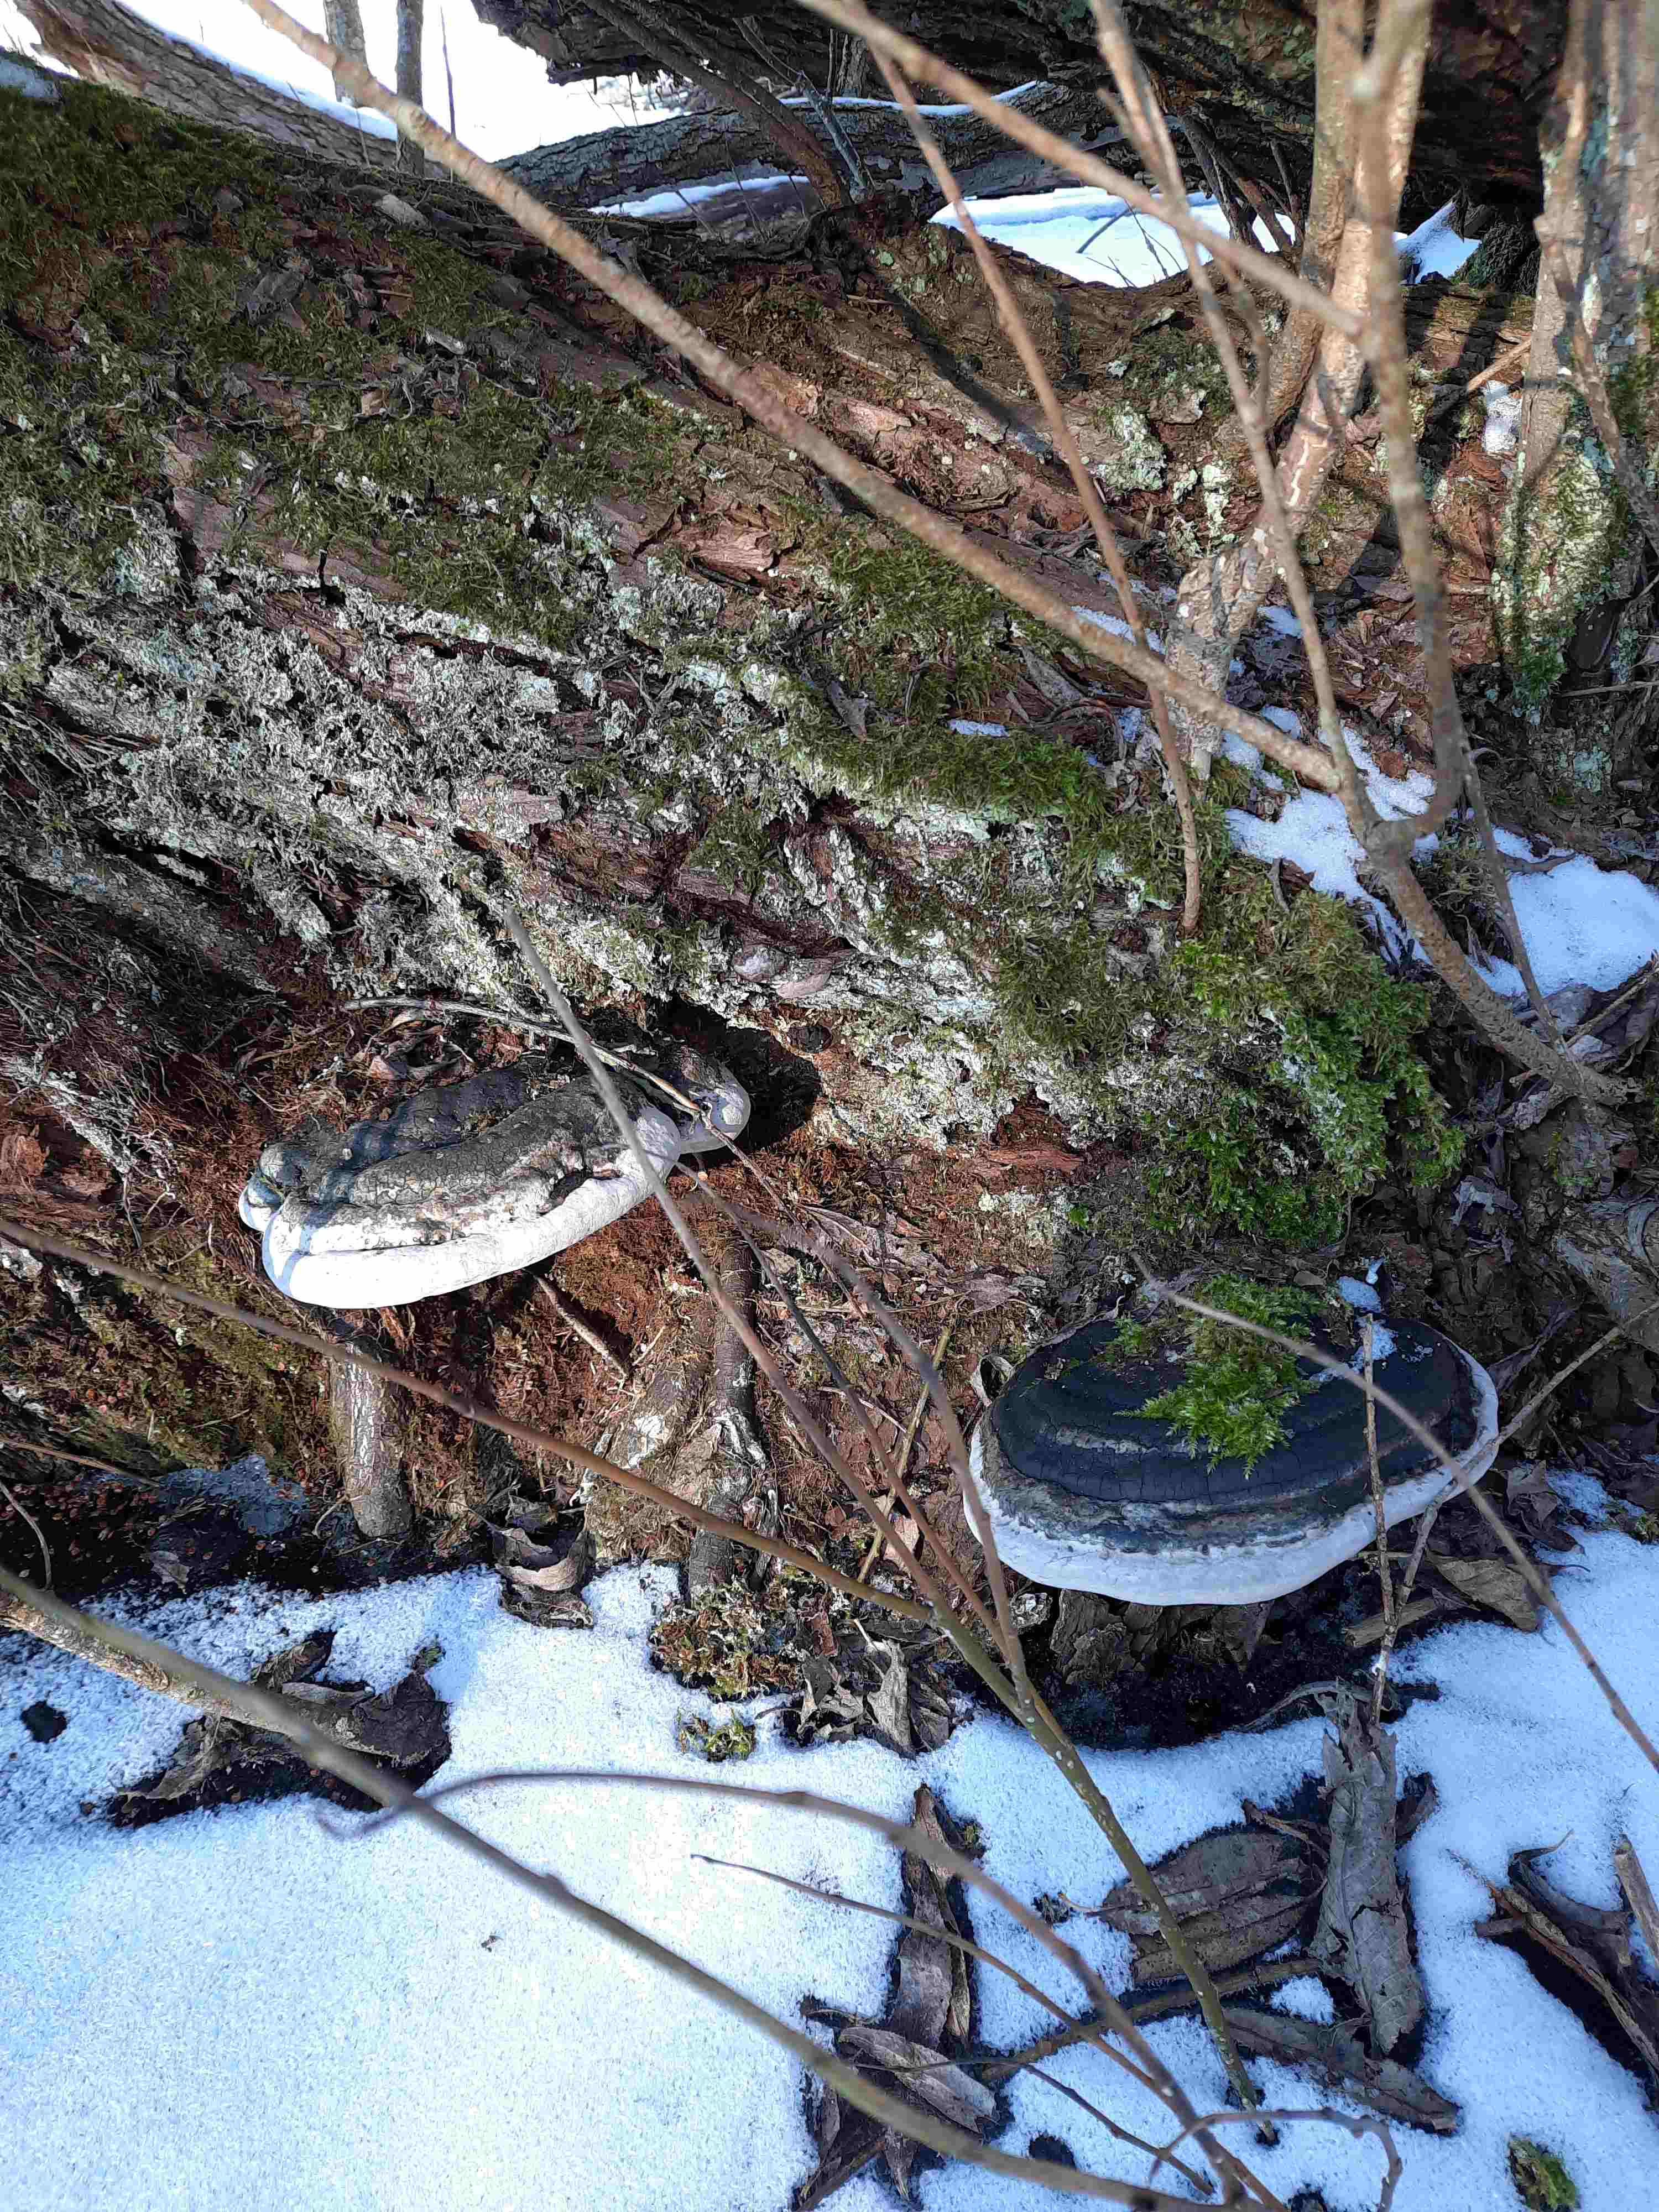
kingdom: Fungi
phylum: Basidiomycota
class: Agaricomycetes
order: Hymenochaetales
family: Hymenochaetaceae
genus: Phellinus
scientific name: Phellinus igniarius
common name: almindelig ildporesvamp
